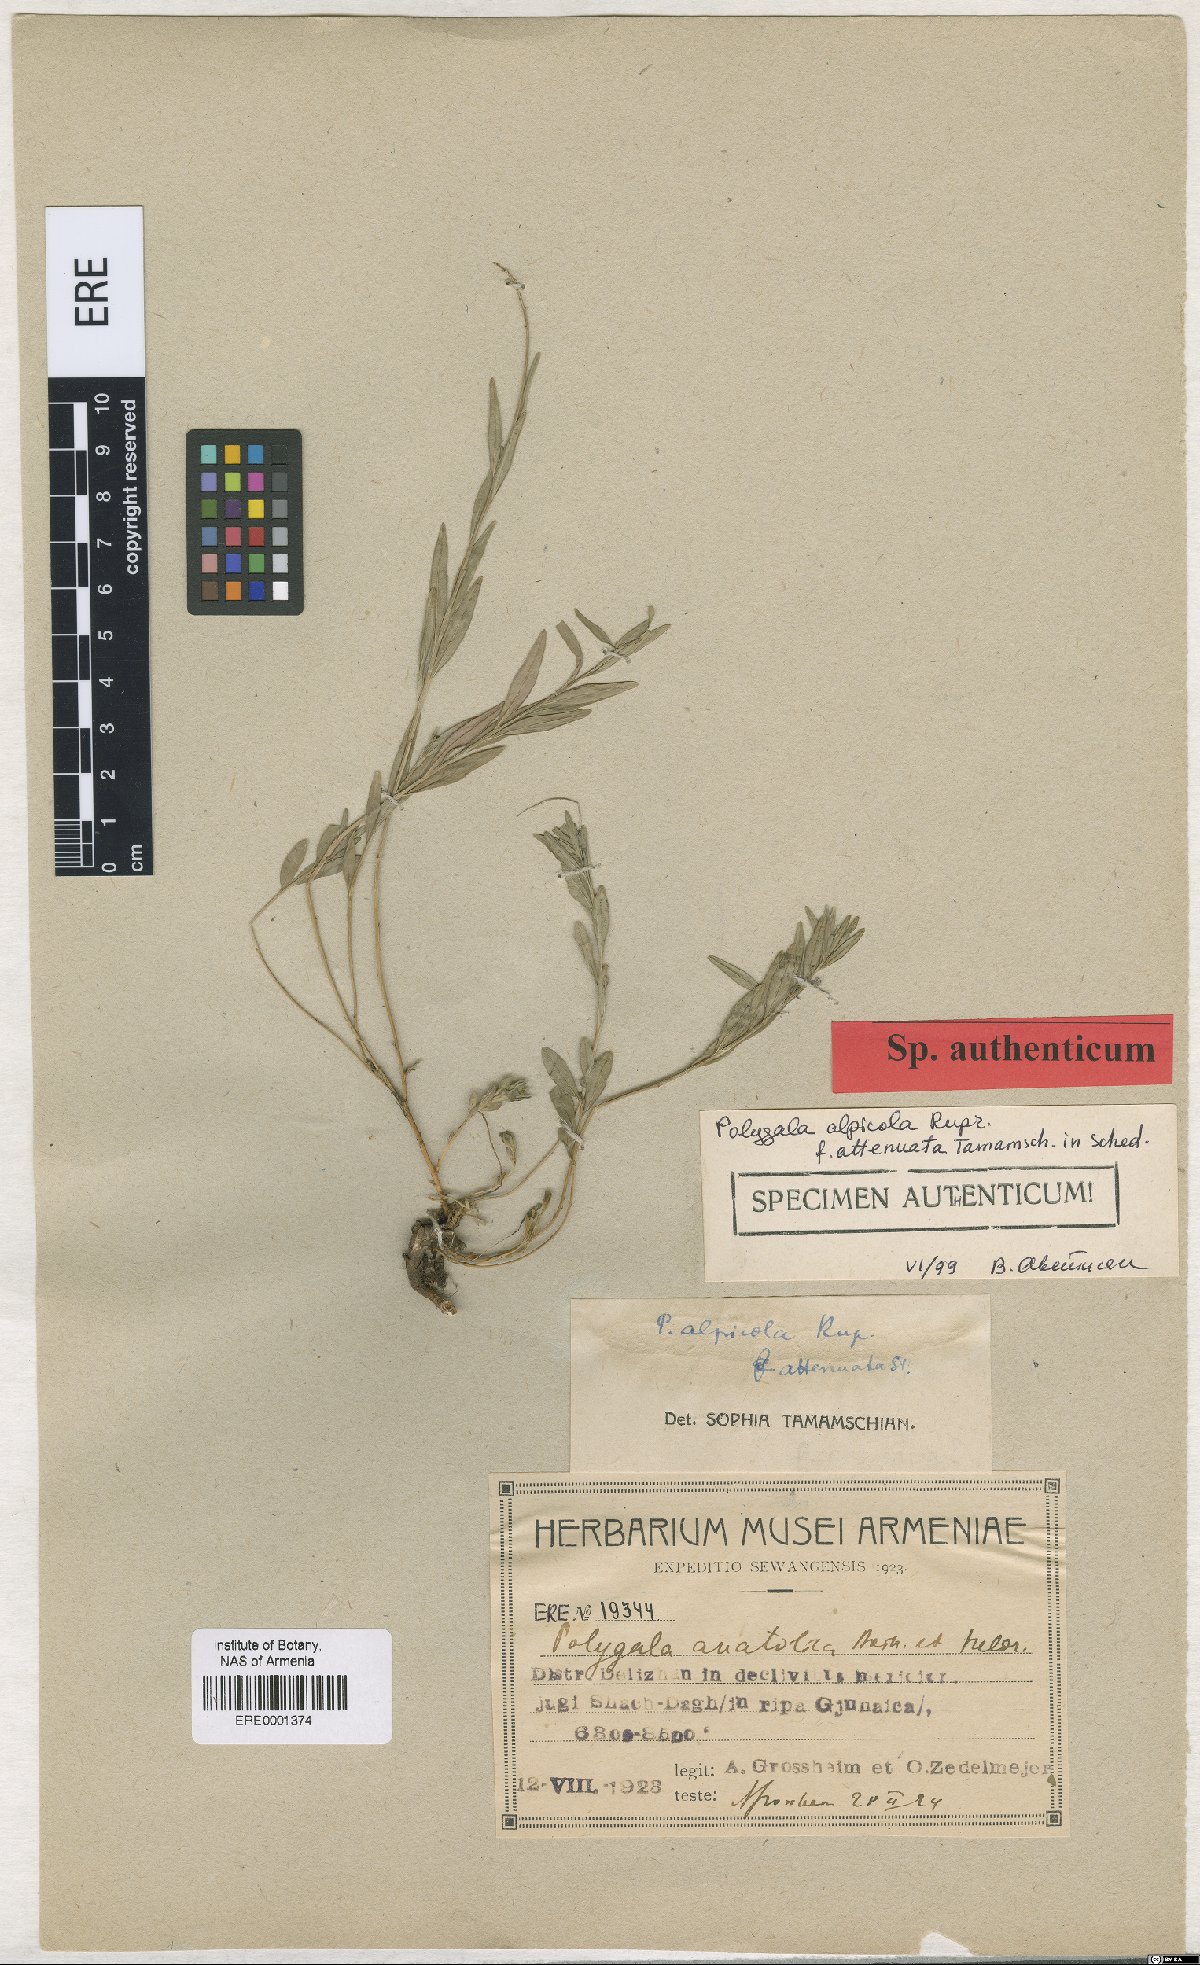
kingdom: Plantae
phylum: Tracheophyta
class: Magnoliopsida
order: Fabales
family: Polygalaceae
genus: Polygala
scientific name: Polygala alpicola
